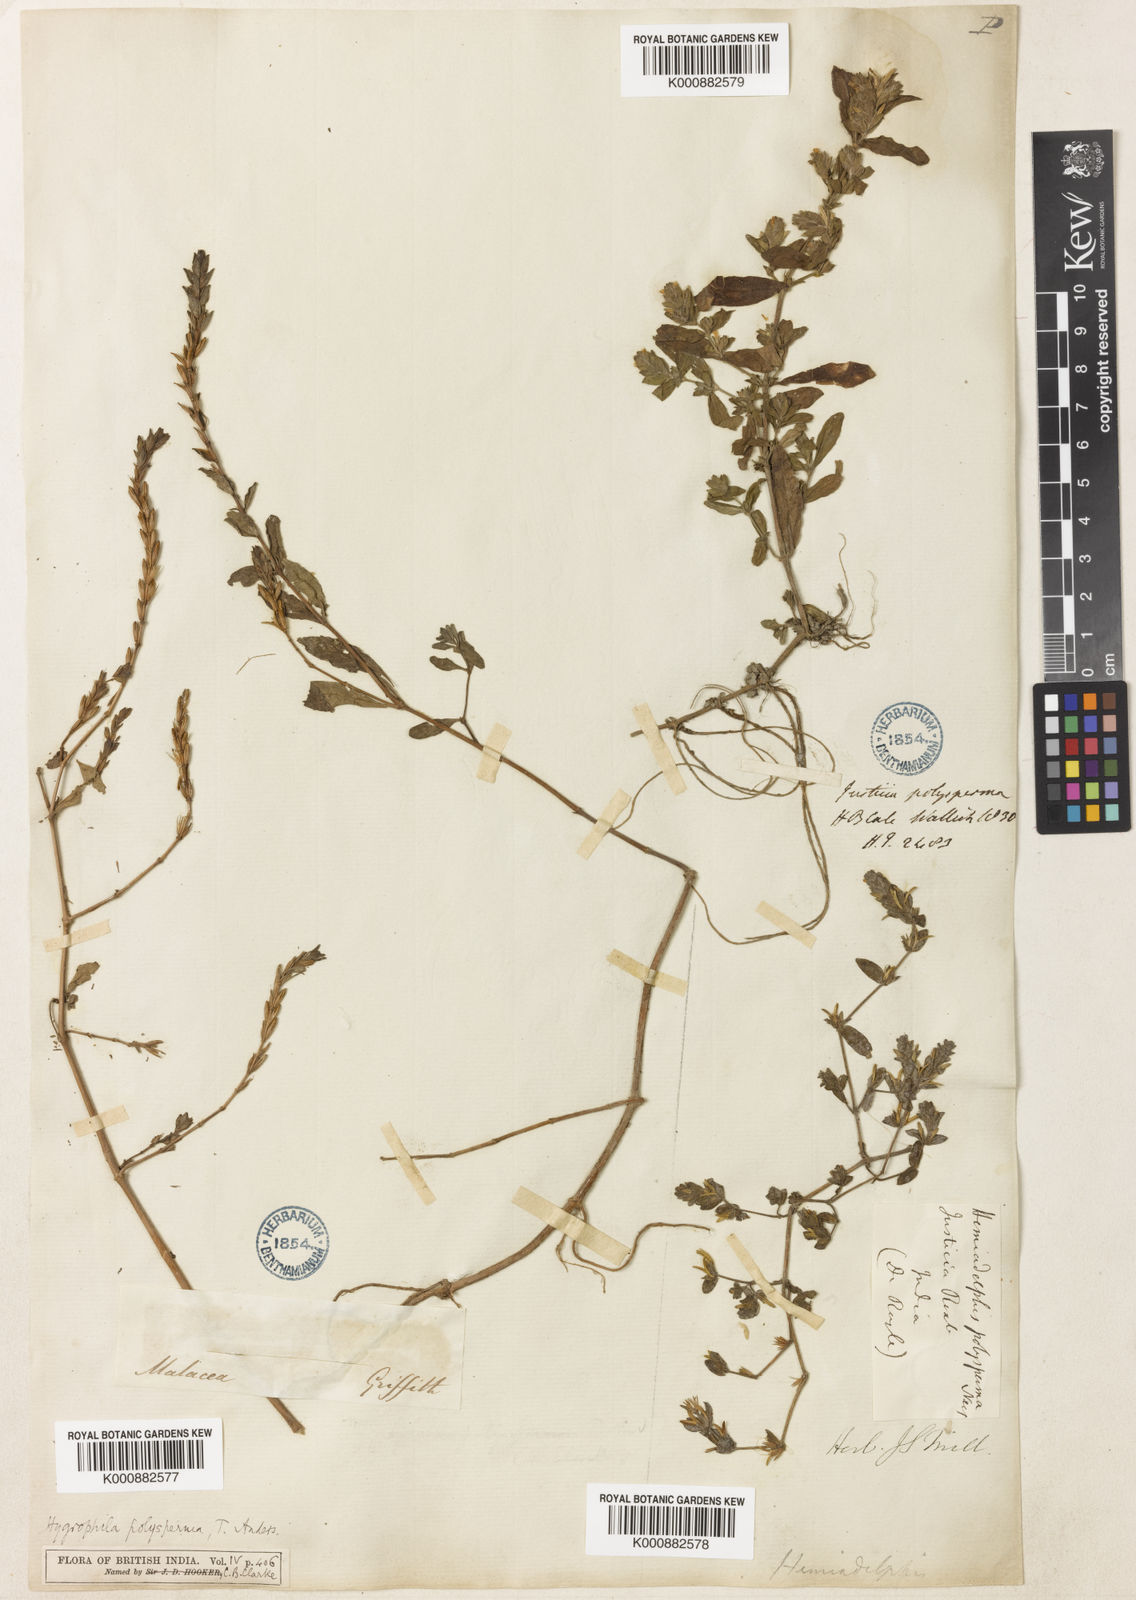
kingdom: Plantae
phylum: Tracheophyta
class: Magnoliopsida
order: Lamiales
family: Acanthaceae
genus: Hygrophila
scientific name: Hygrophila polysperma
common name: Indian swampweed
